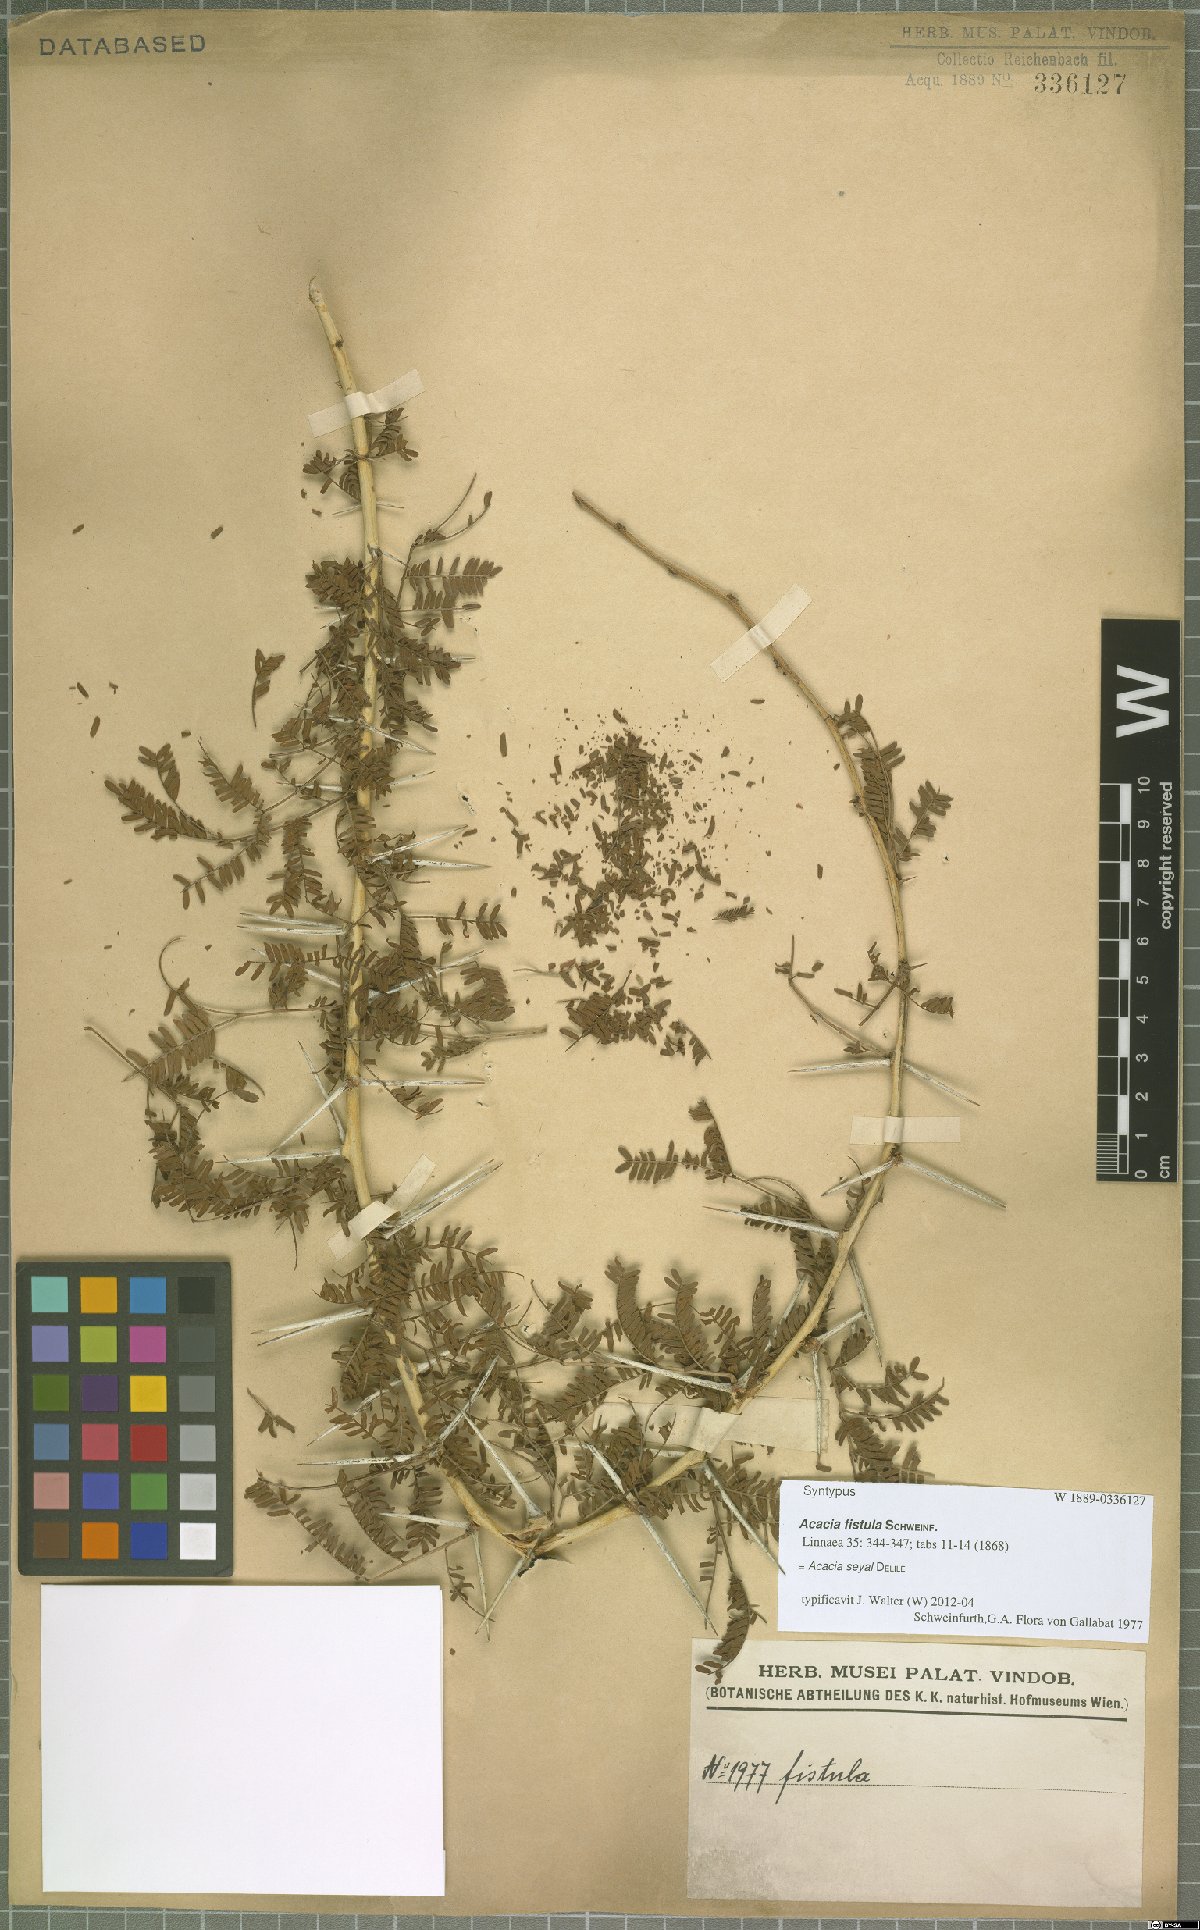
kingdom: Plantae
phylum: Tracheophyta
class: Magnoliopsida
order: Fabales
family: Fabaceae
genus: Vachellia
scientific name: Vachellia seyal
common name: Thirtythorn
